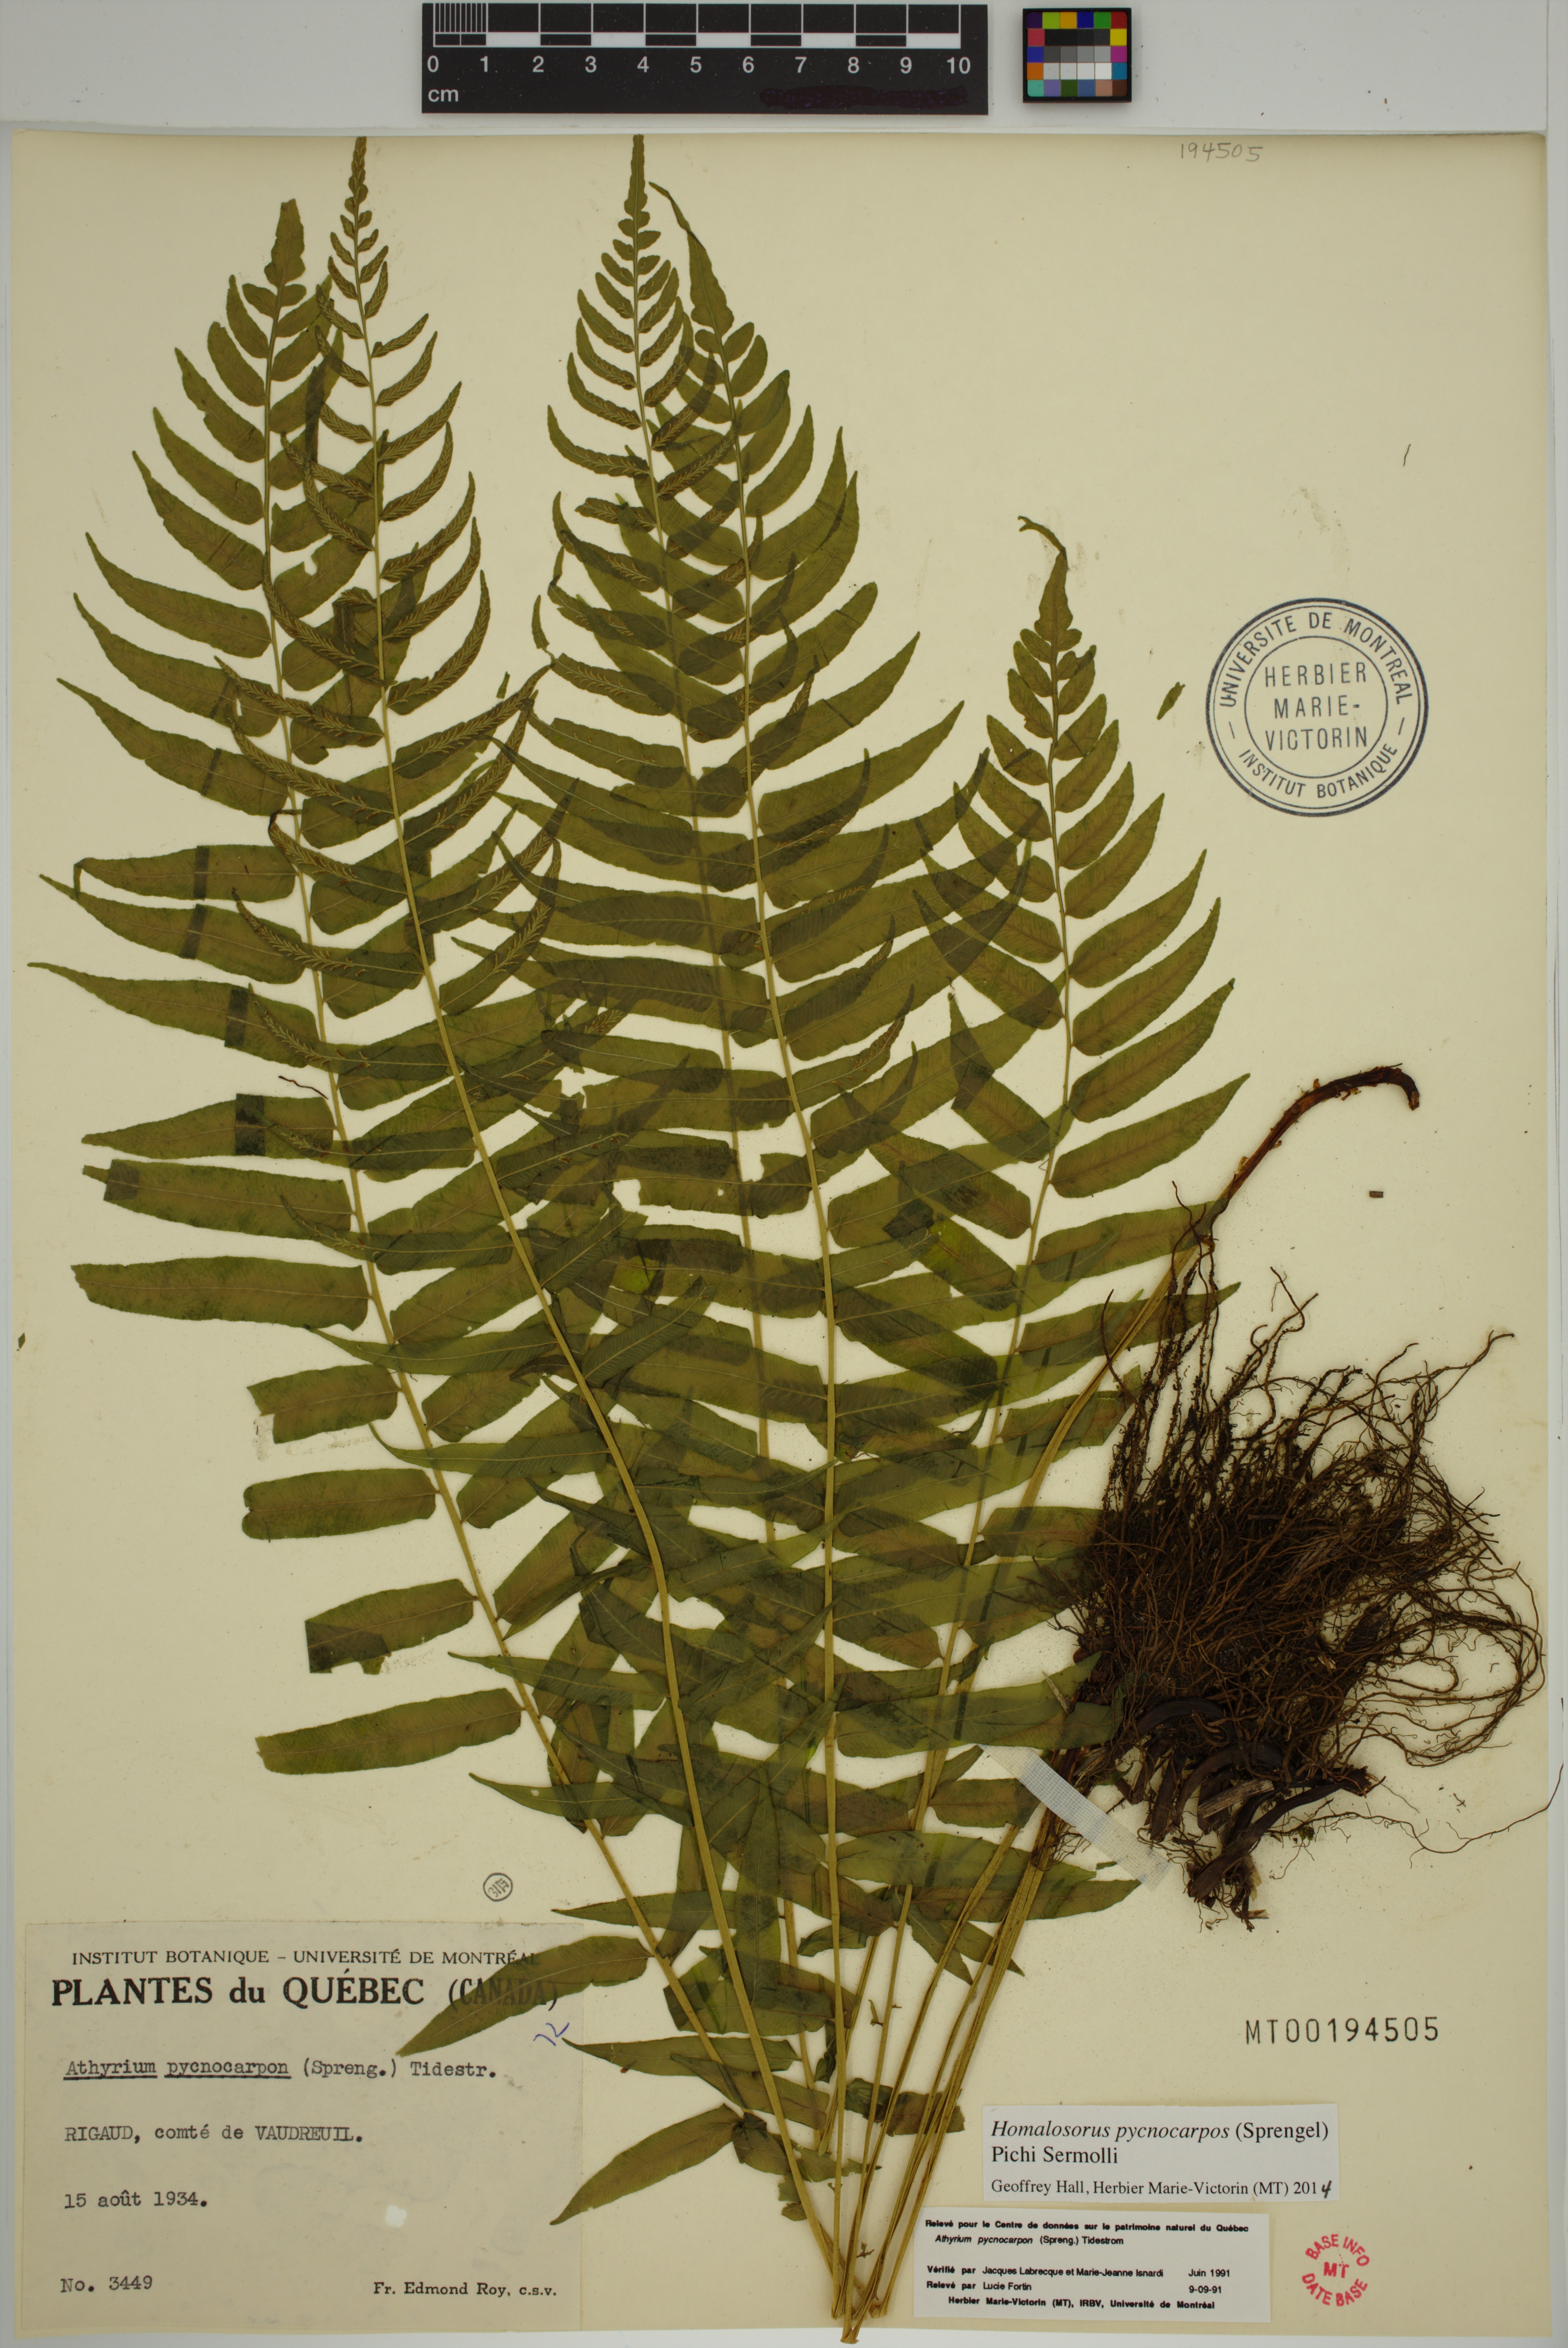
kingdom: Plantae
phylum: Tracheophyta
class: Polypodiopsida
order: Polypodiales
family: Diplaziopsidaceae
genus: Homalosorus
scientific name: Homalosorus pycnocarpos
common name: Glade fern
